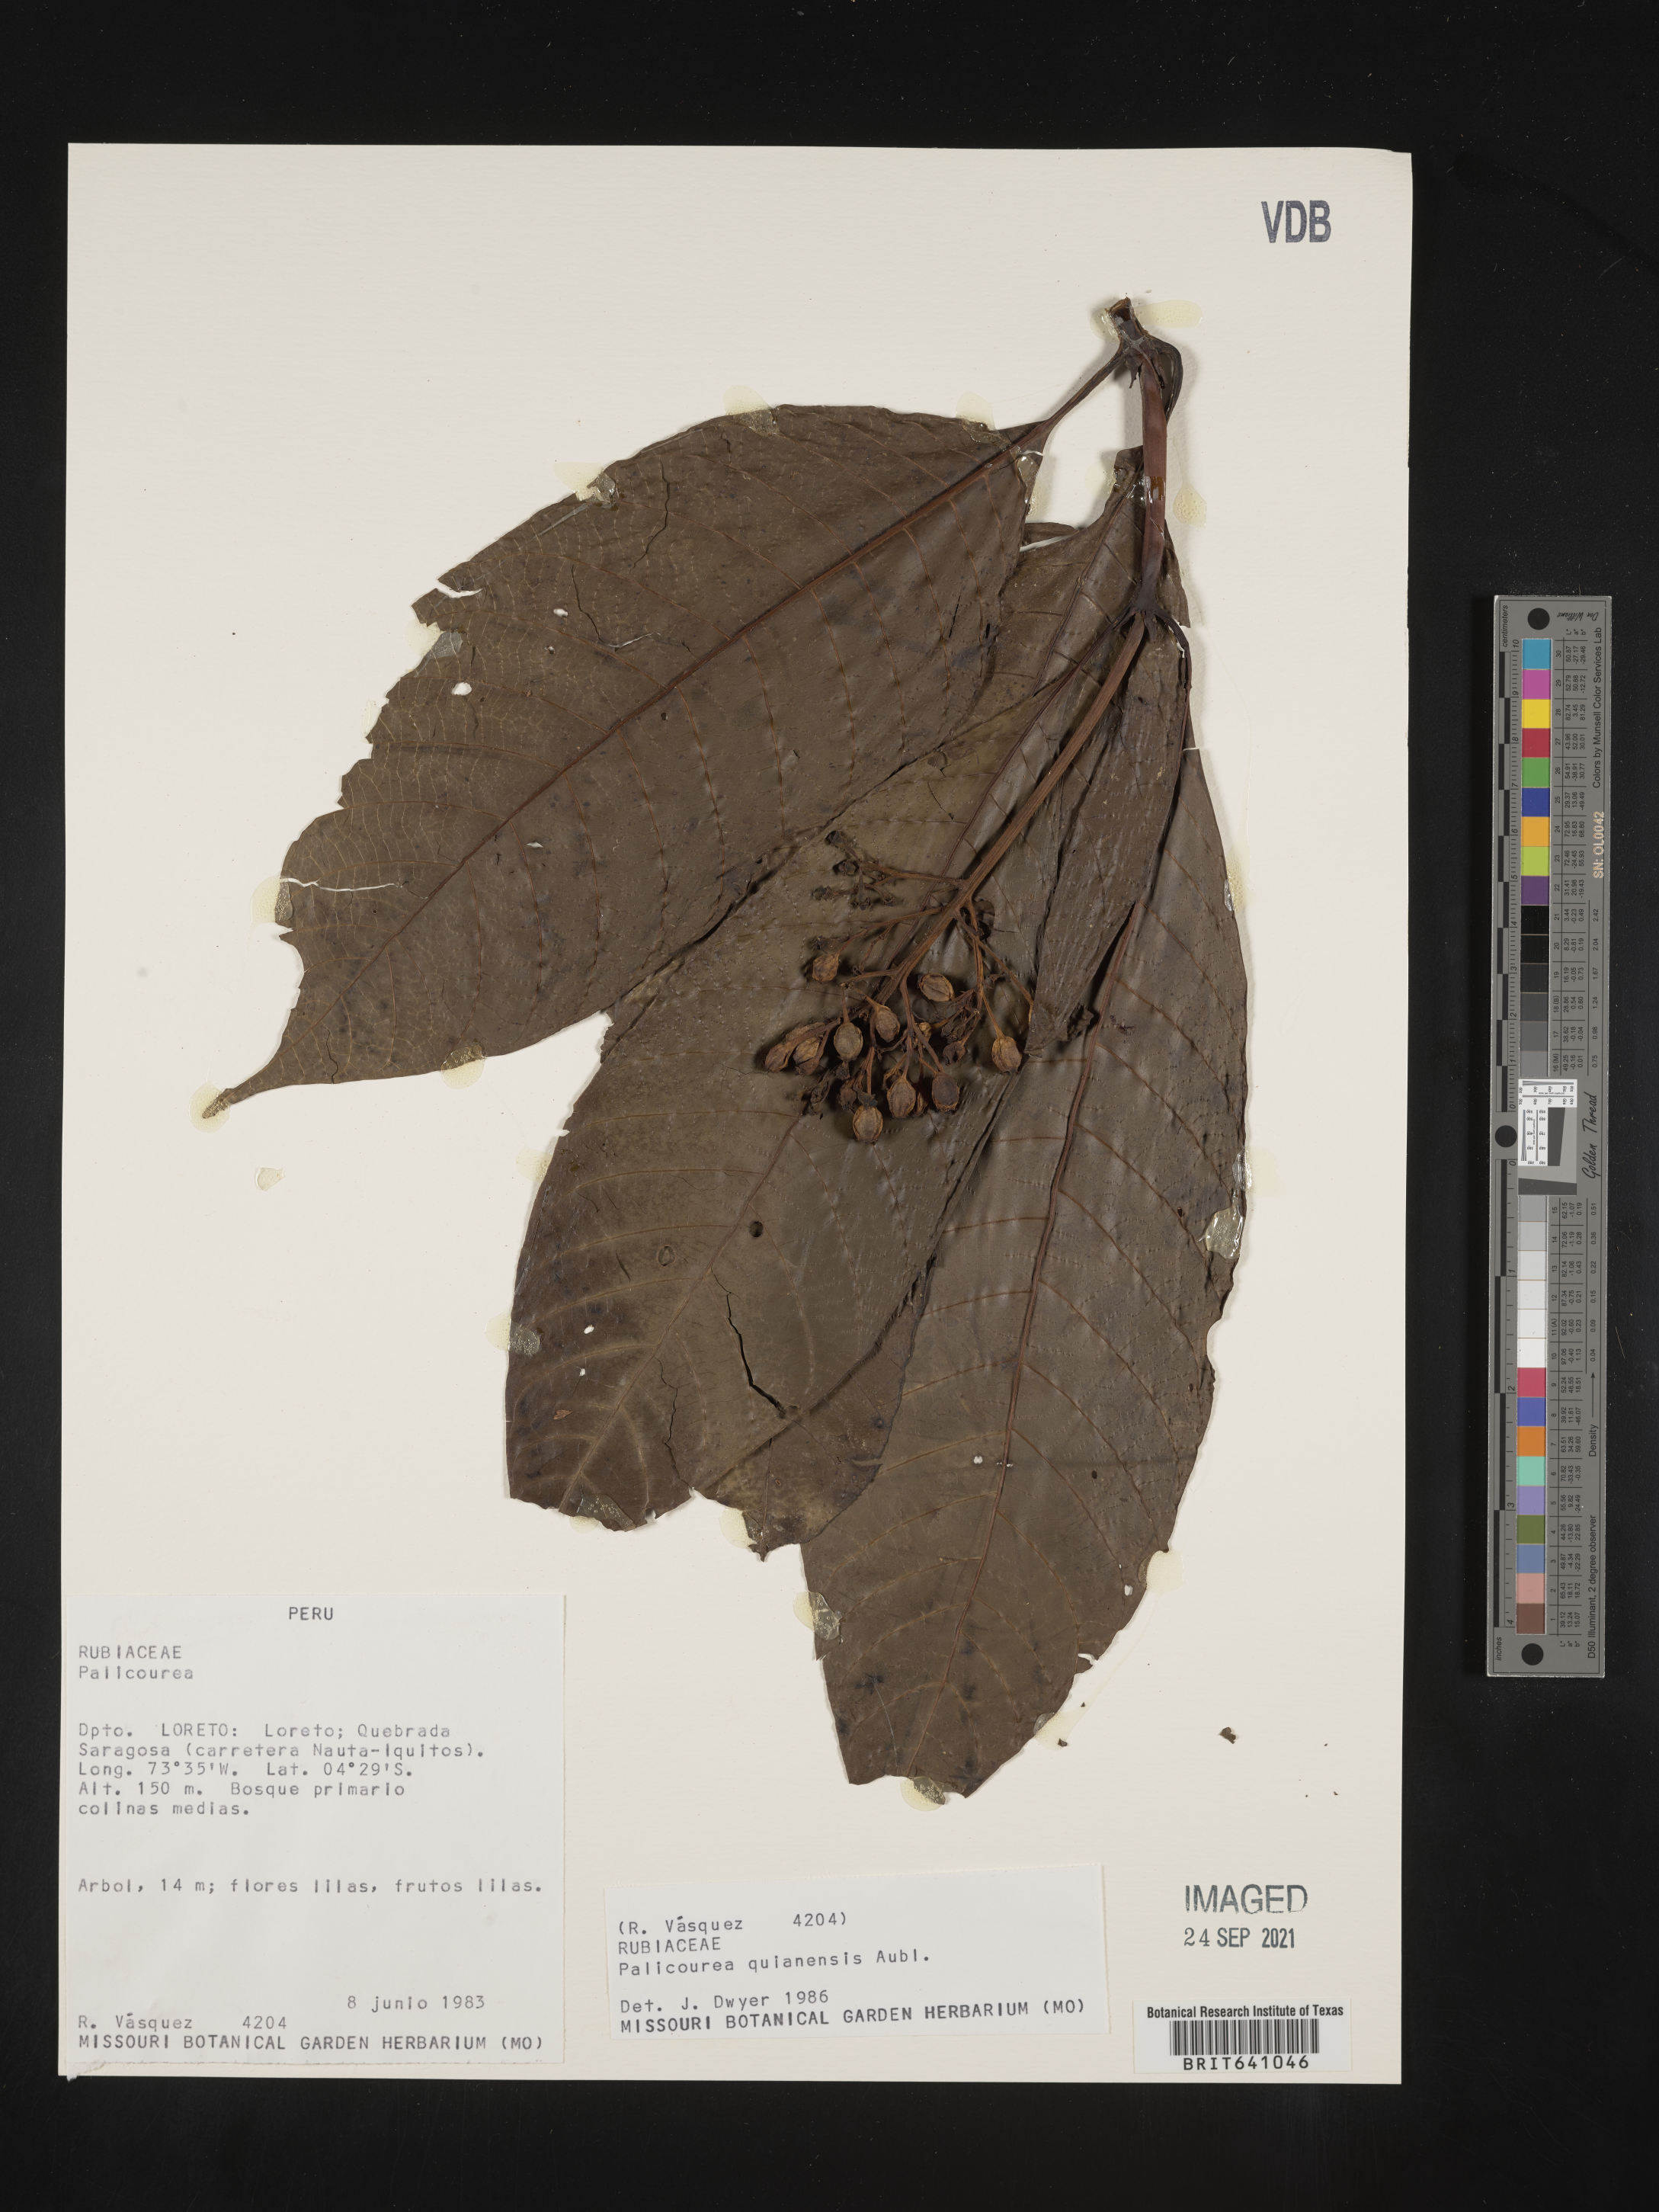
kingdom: Plantae
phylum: Tracheophyta
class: Magnoliopsida
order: Gentianales
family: Rubiaceae
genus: Palicourea
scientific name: Palicourea
